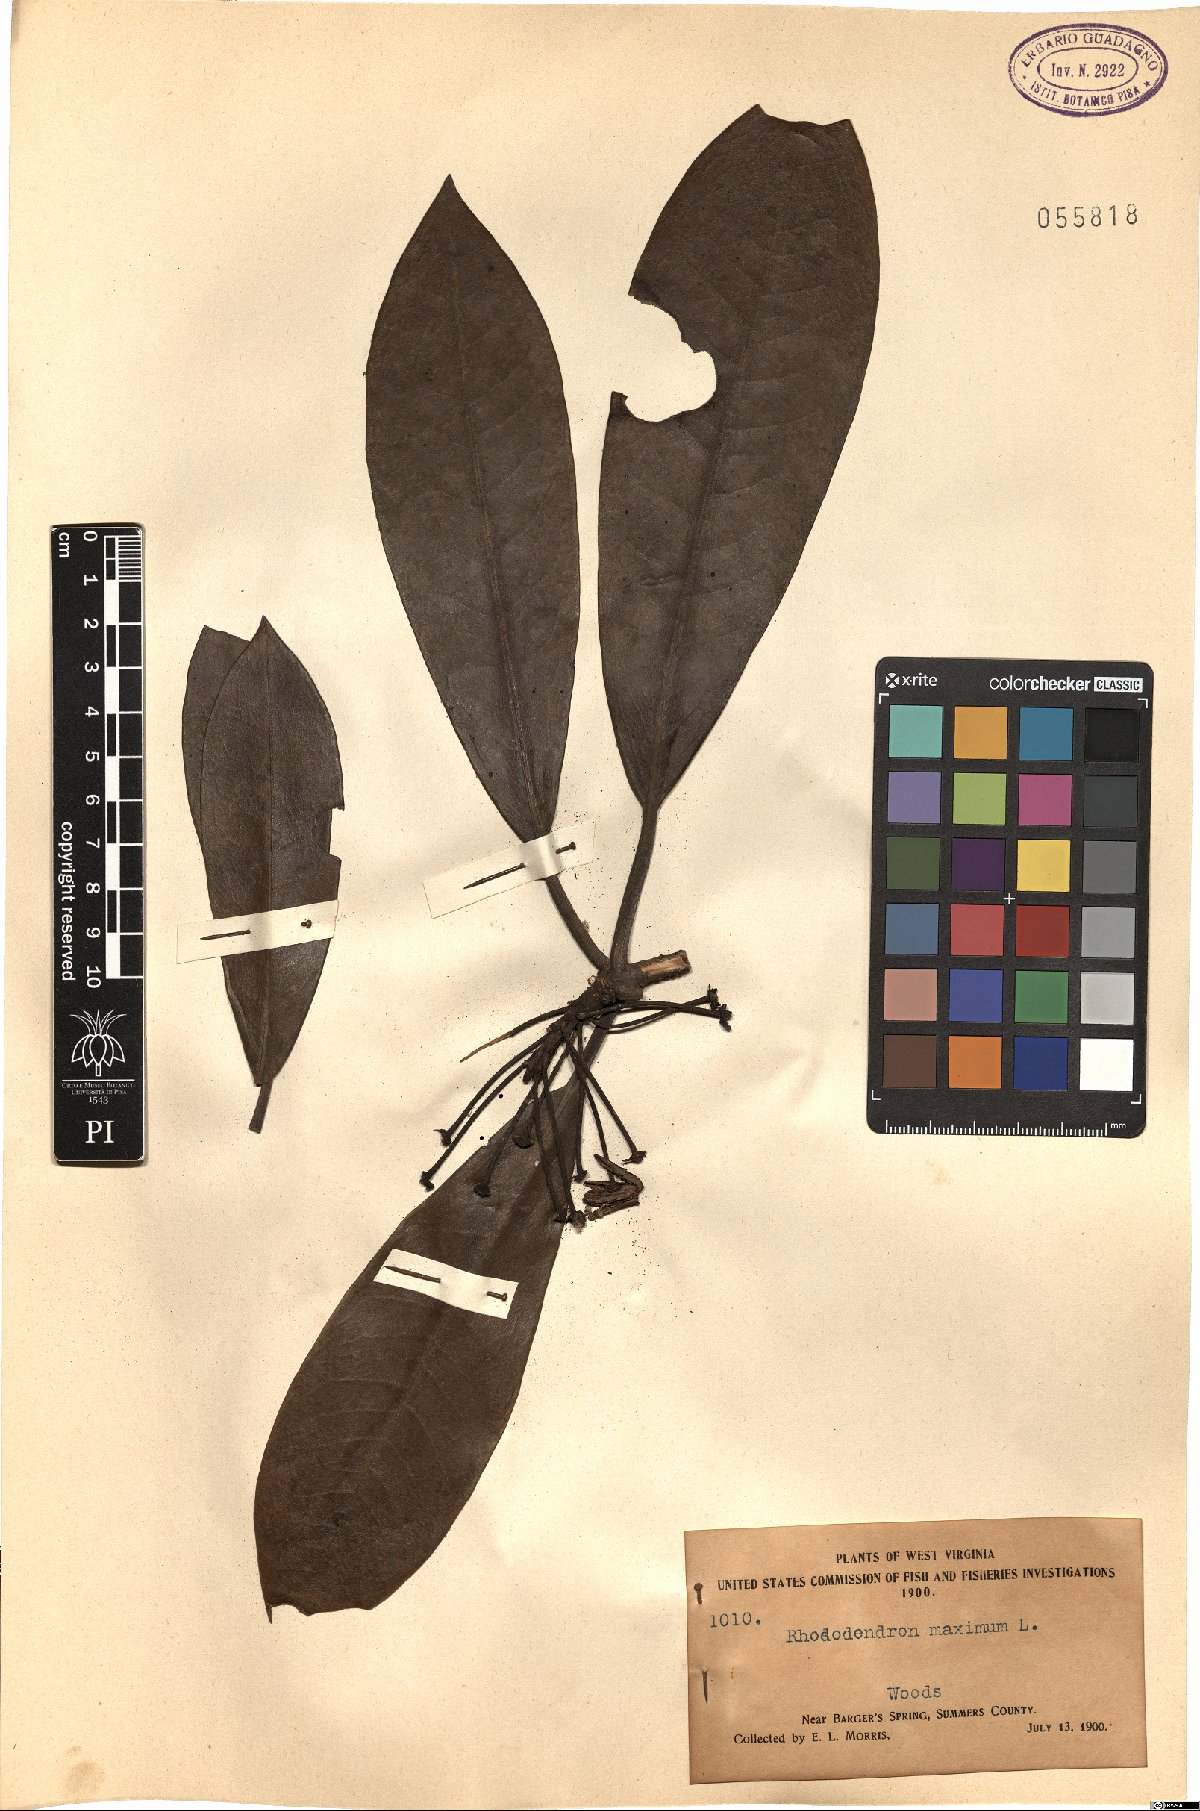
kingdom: Plantae
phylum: Tracheophyta
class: Magnoliopsida
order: Ericales
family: Ericaceae
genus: Rhododendron
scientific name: Rhododendron maximum
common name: Great rhododendron
